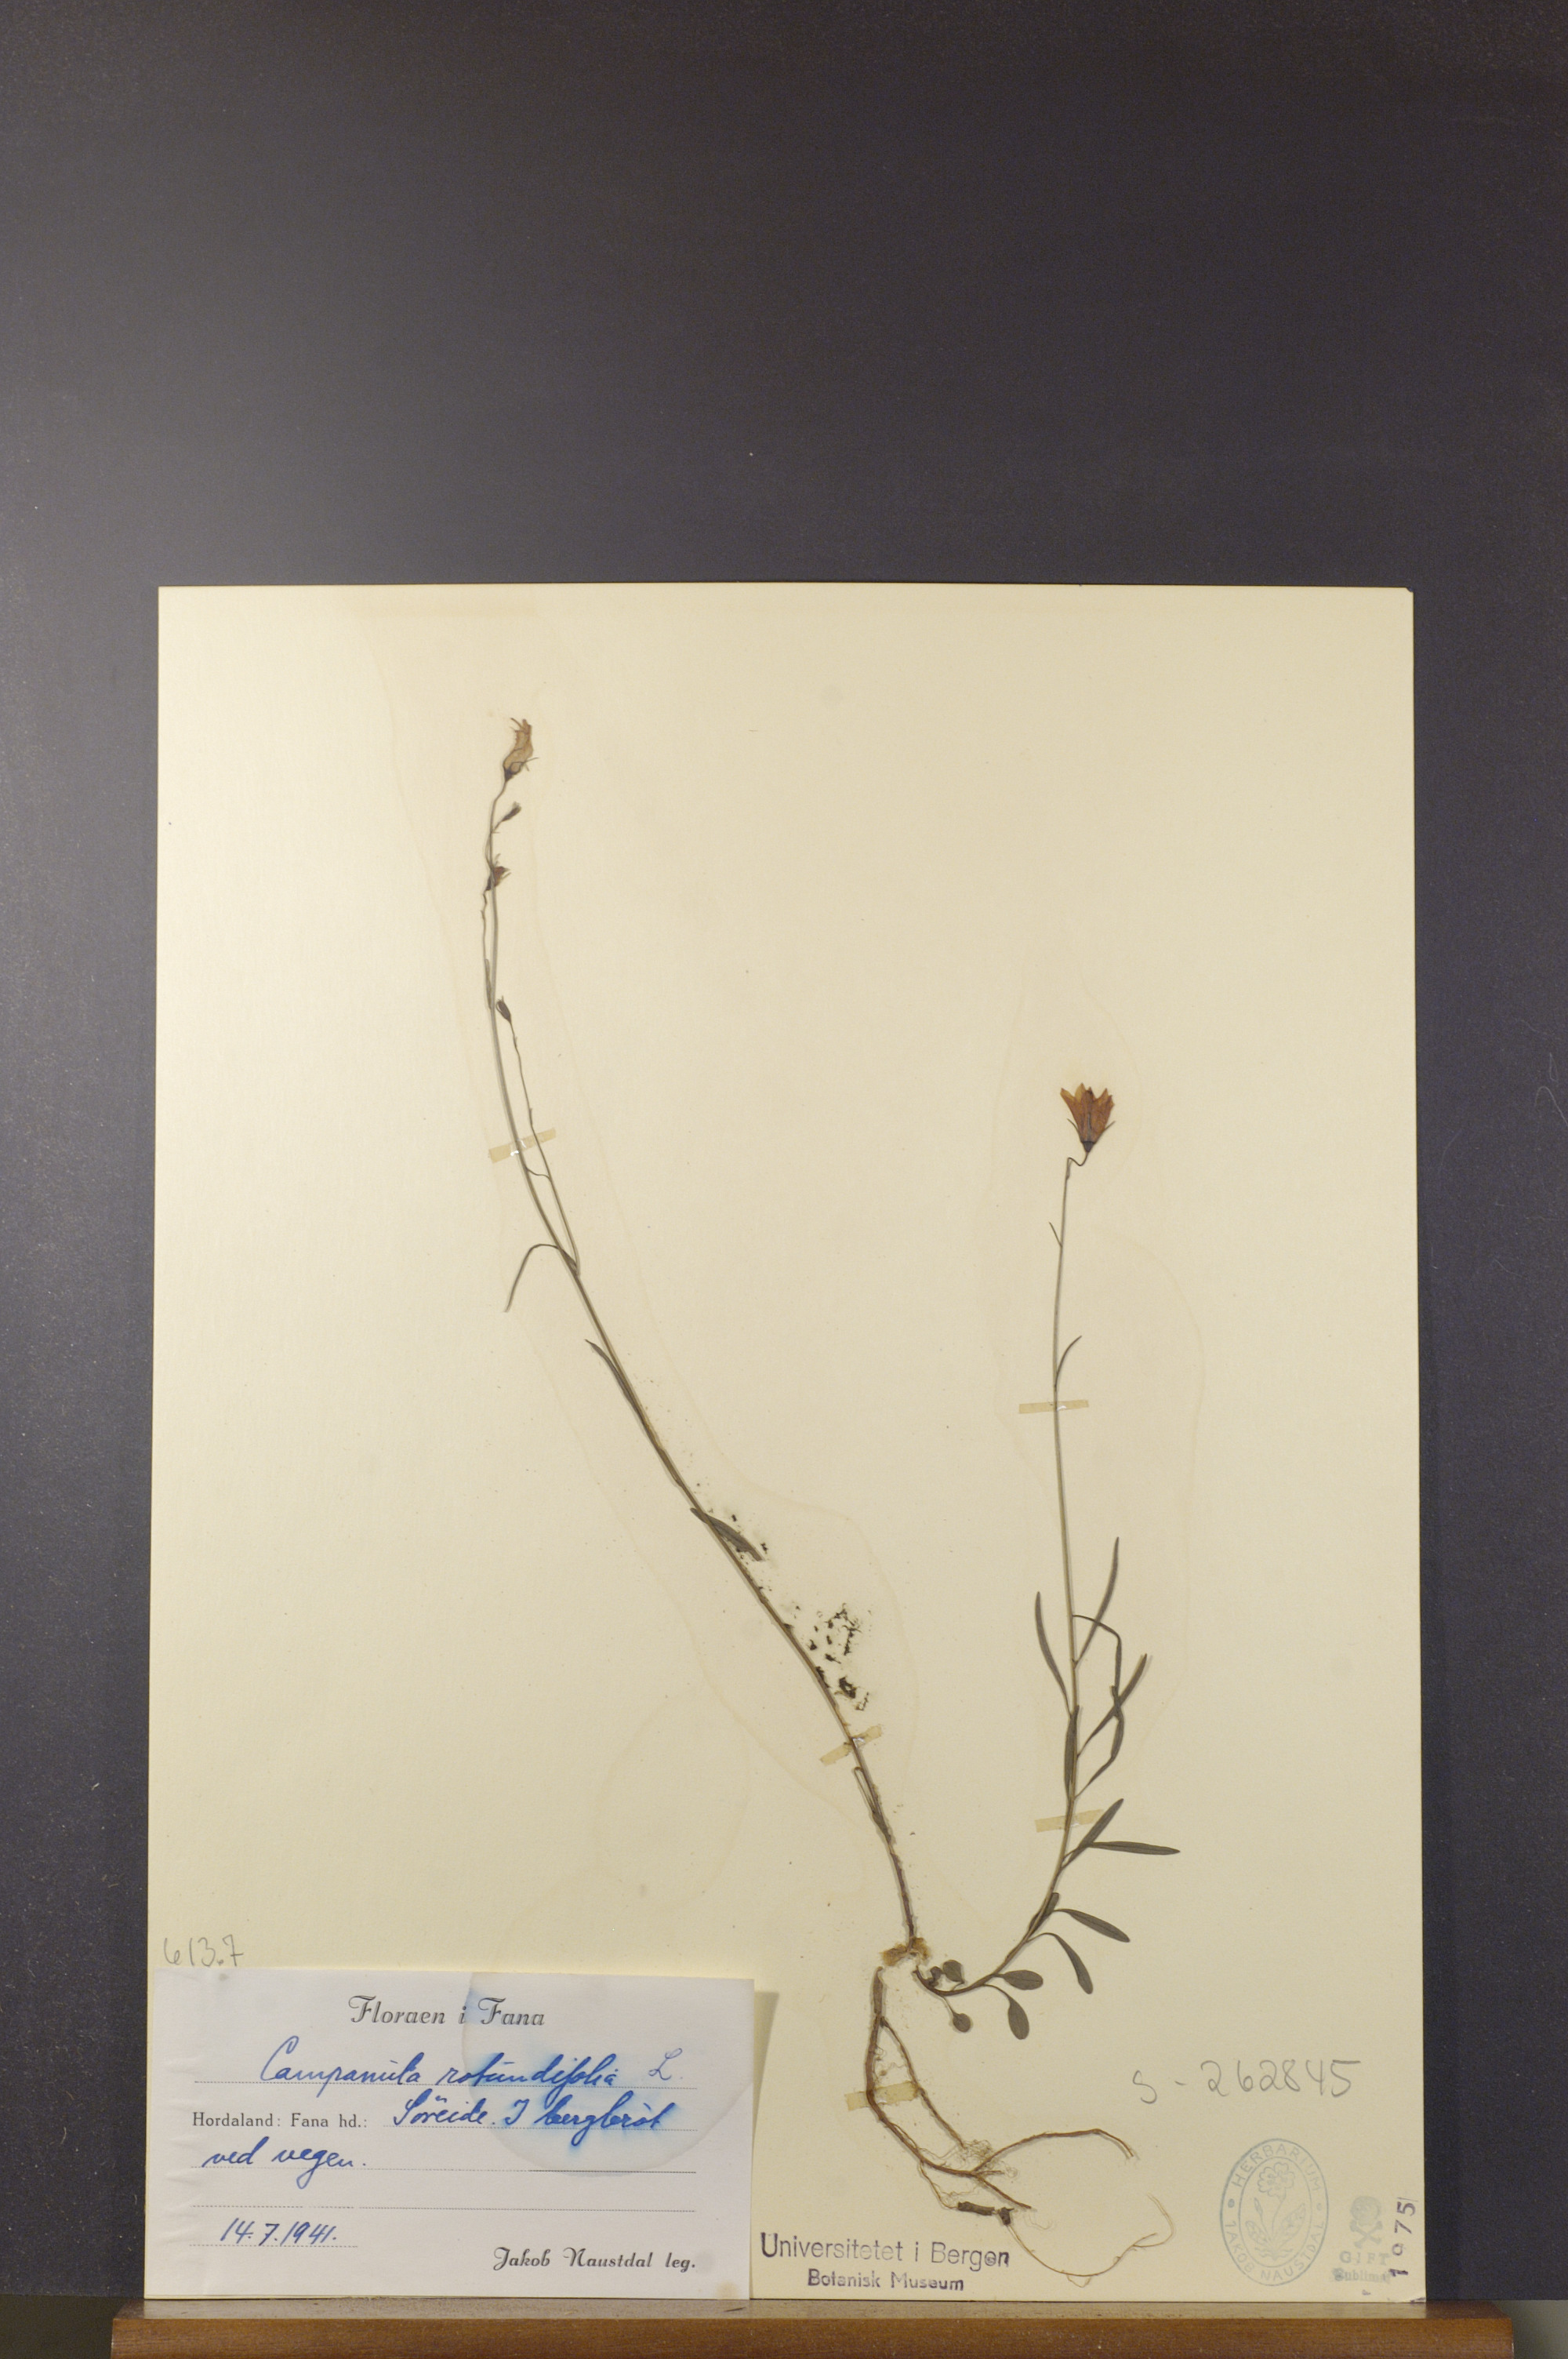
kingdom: Plantae
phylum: Tracheophyta
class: Magnoliopsida
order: Asterales
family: Campanulaceae
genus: Campanula
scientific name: Campanula rotundifolia
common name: Harebell
